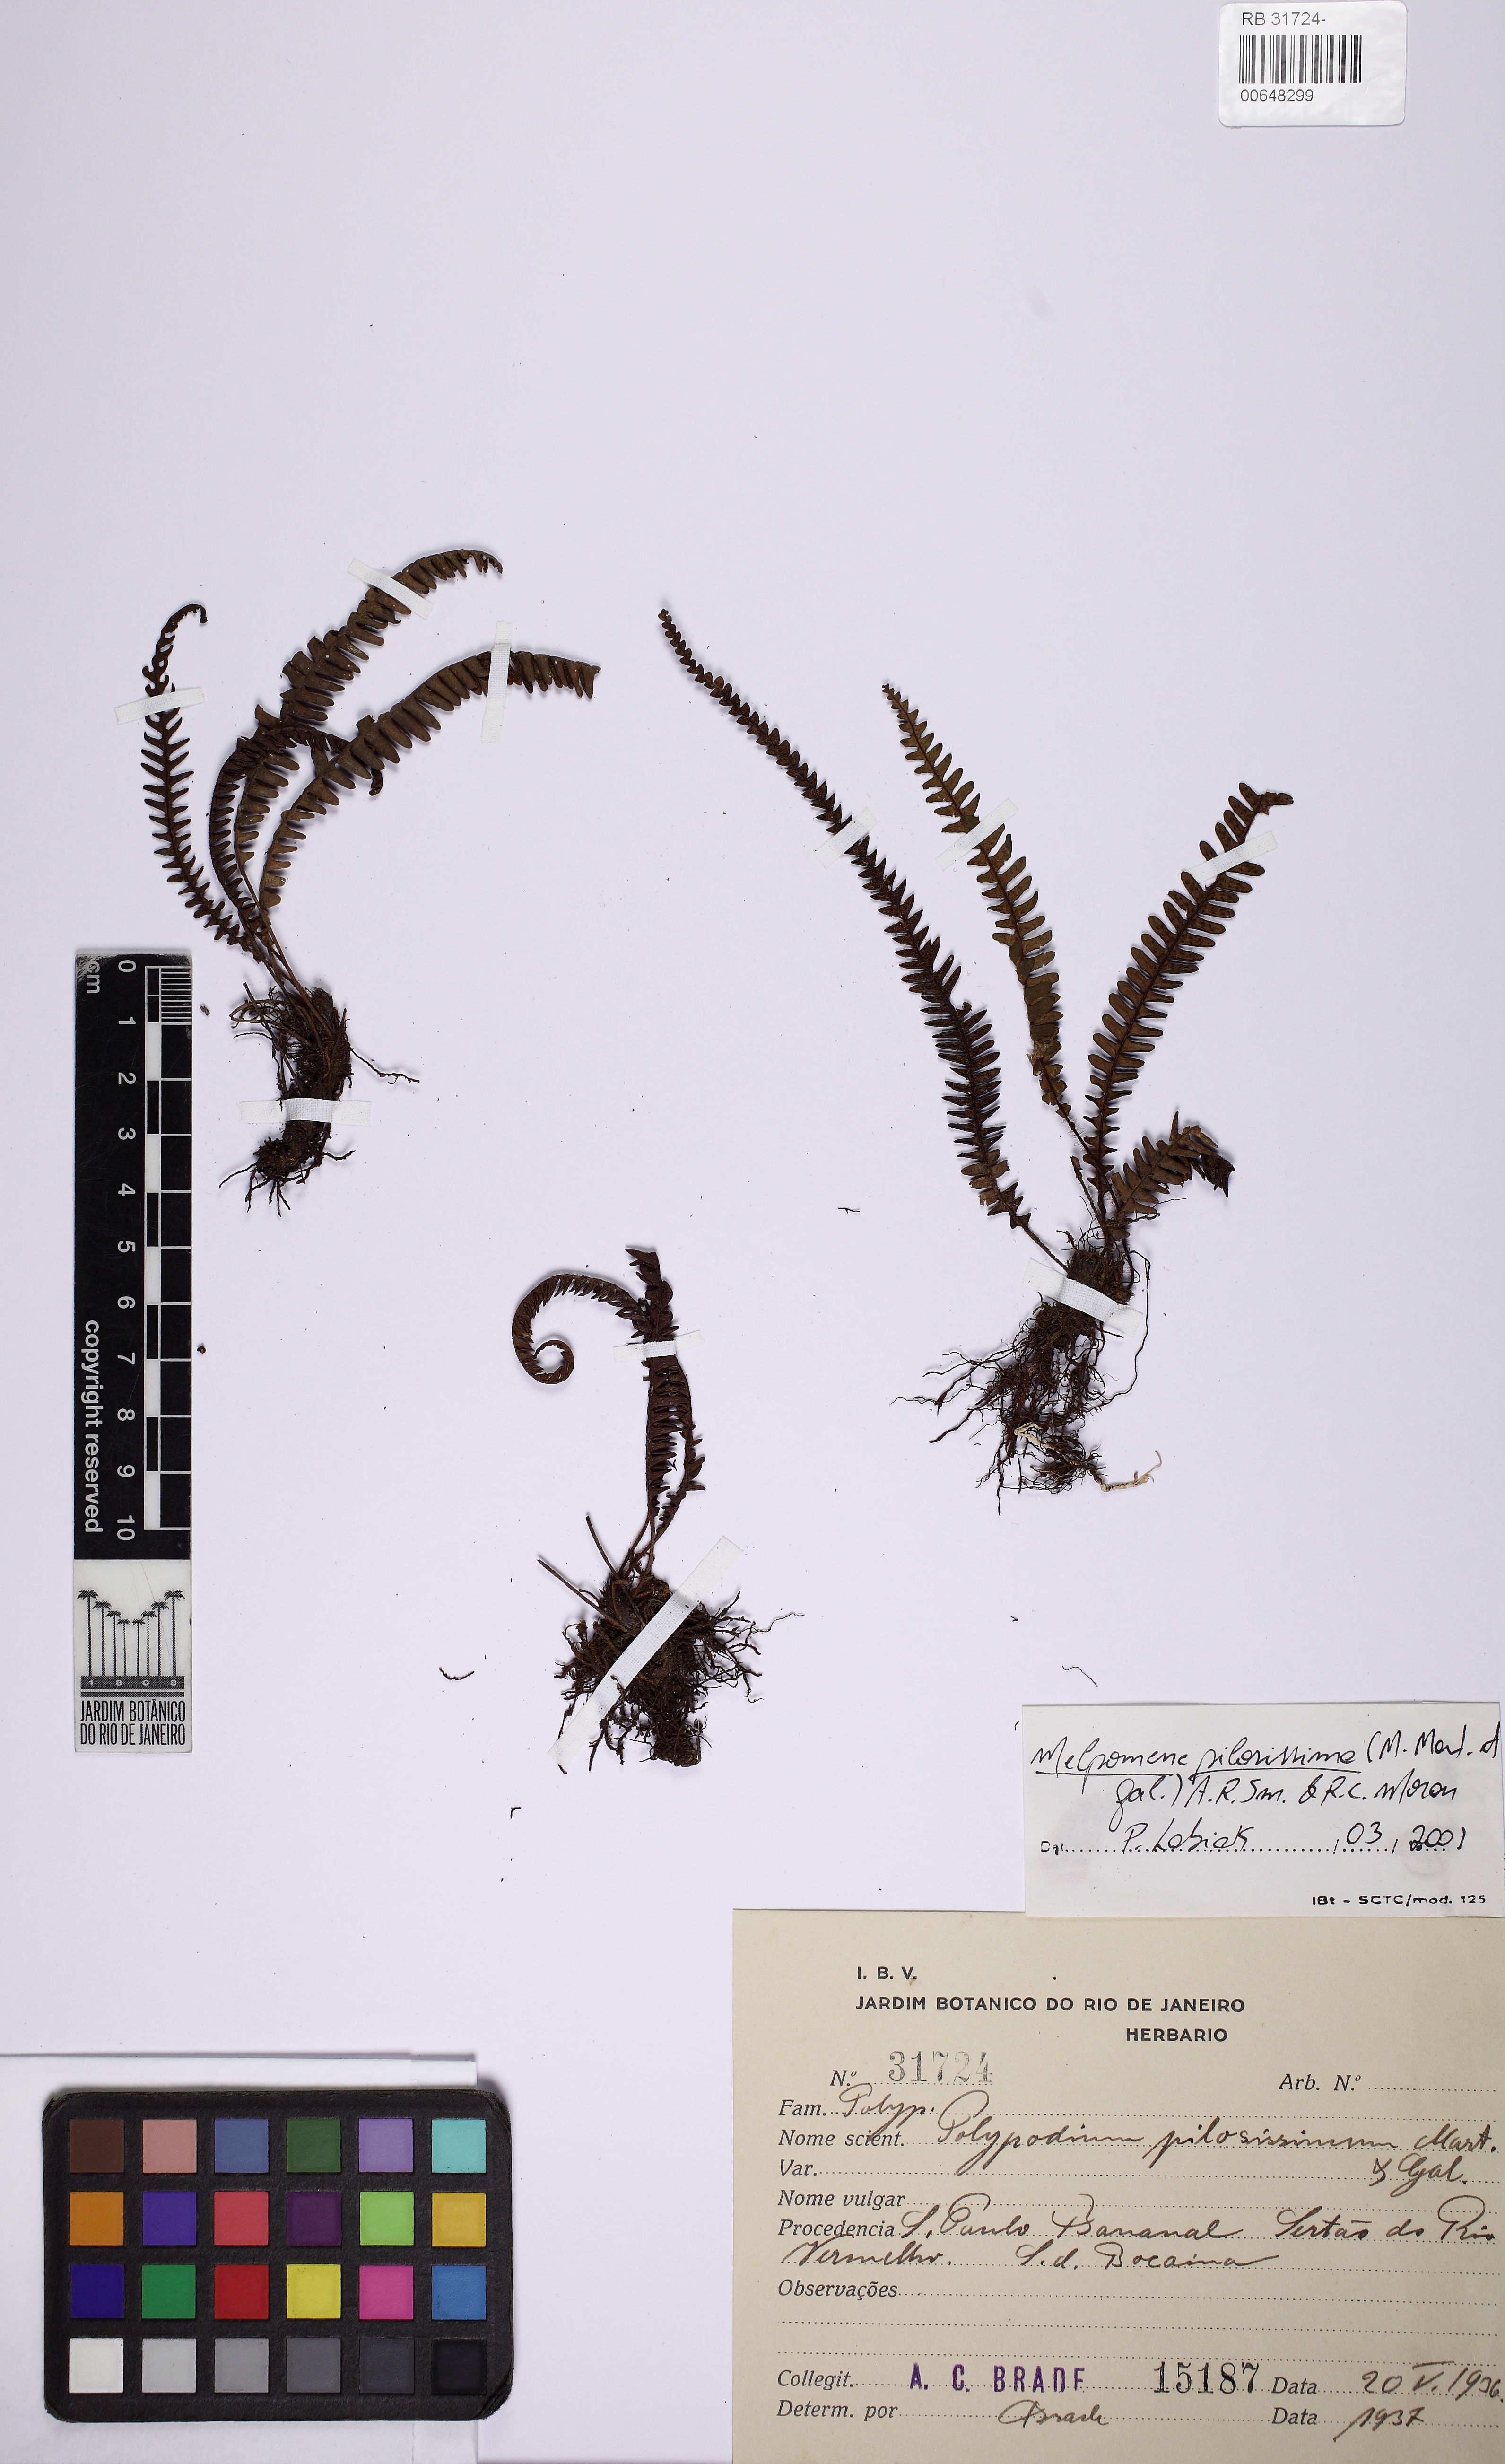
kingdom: Plantae
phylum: Tracheophyta
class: Polypodiopsida
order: Polypodiales
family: Polypodiaceae
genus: Melpomene
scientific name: Melpomene pilosissima
